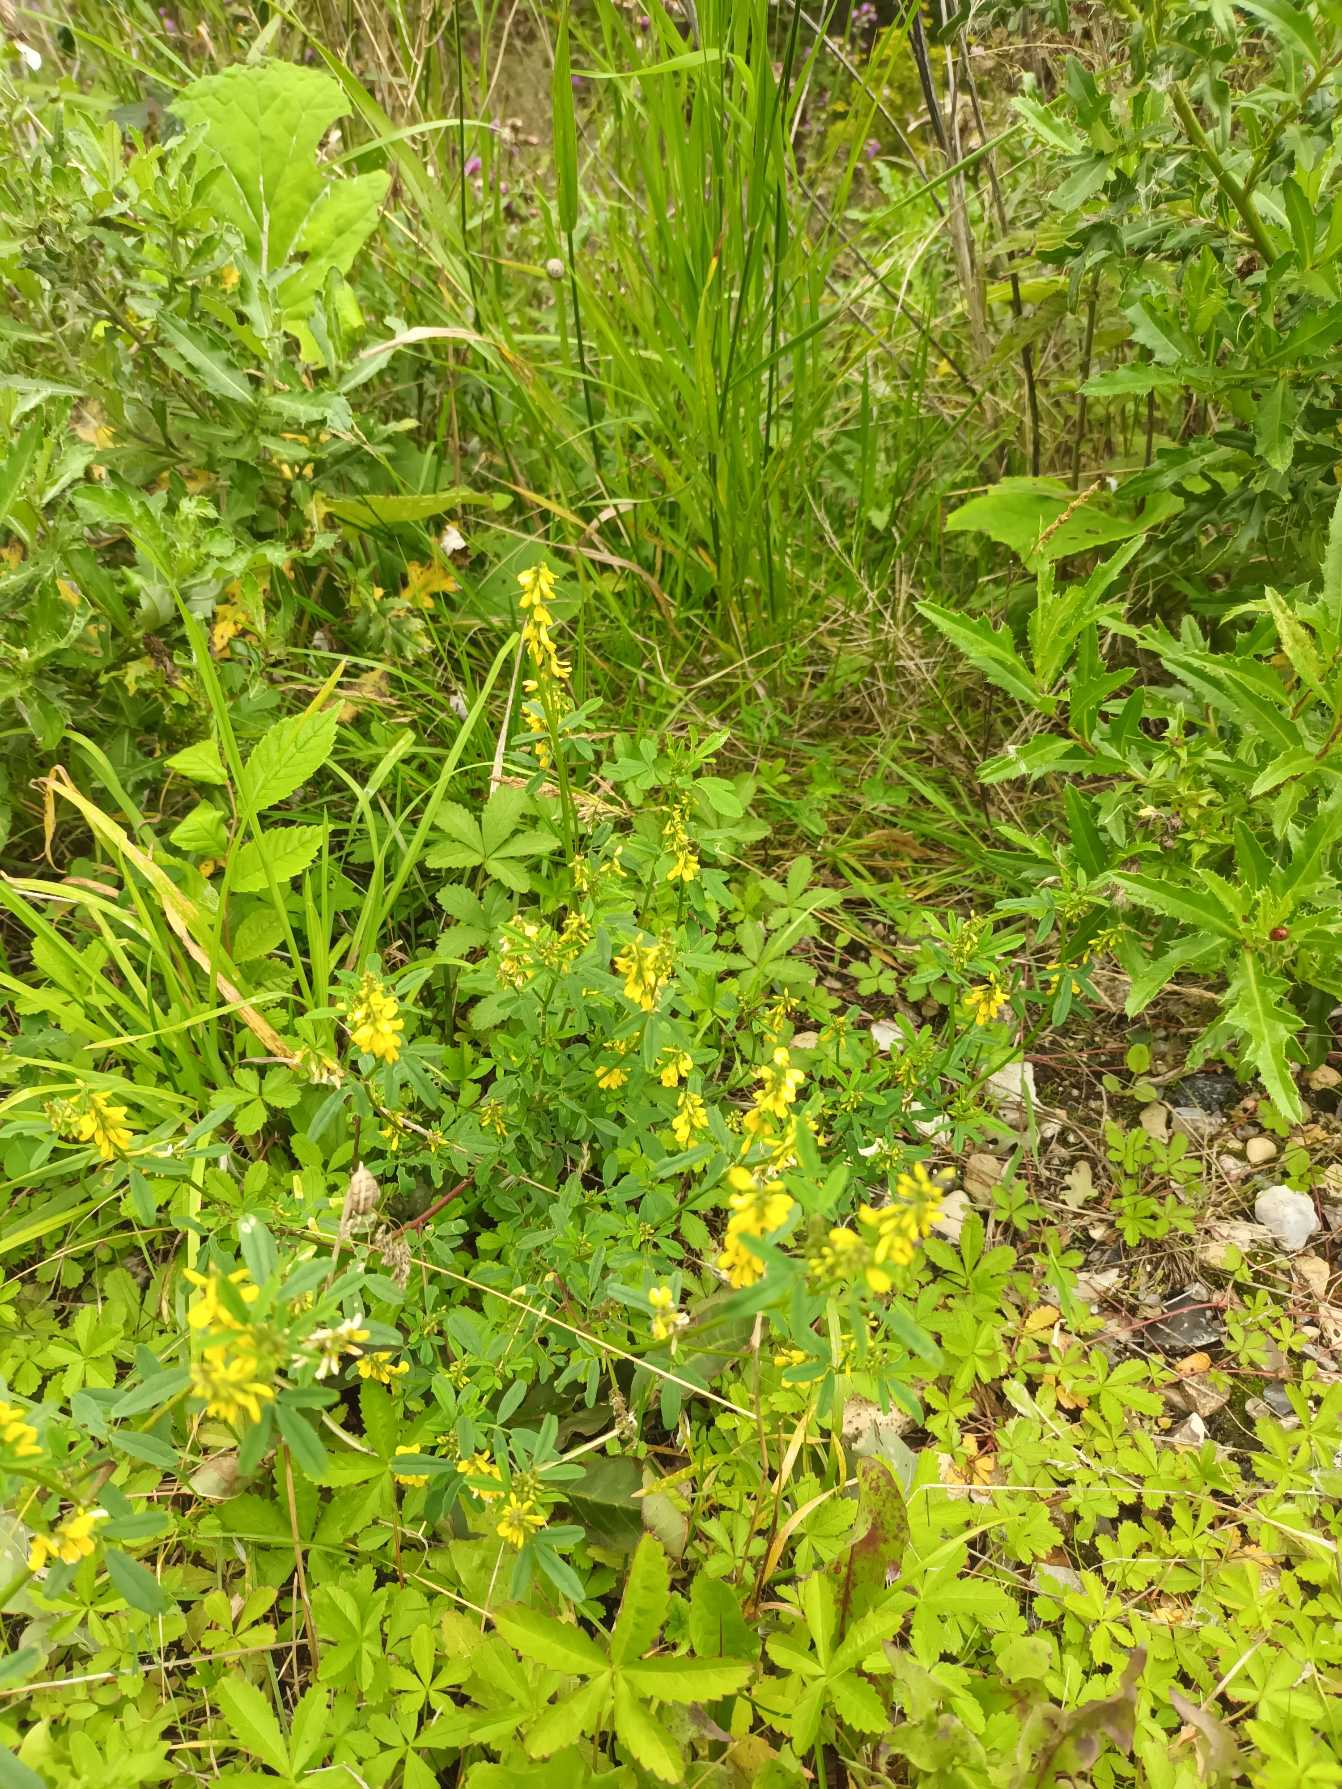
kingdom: Plantae
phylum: Tracheophyta
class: Magnoliopsida
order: Fabales
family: Fabaceae
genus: Melilotus
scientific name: Melilotus altissimus
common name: Høj stenkløver
